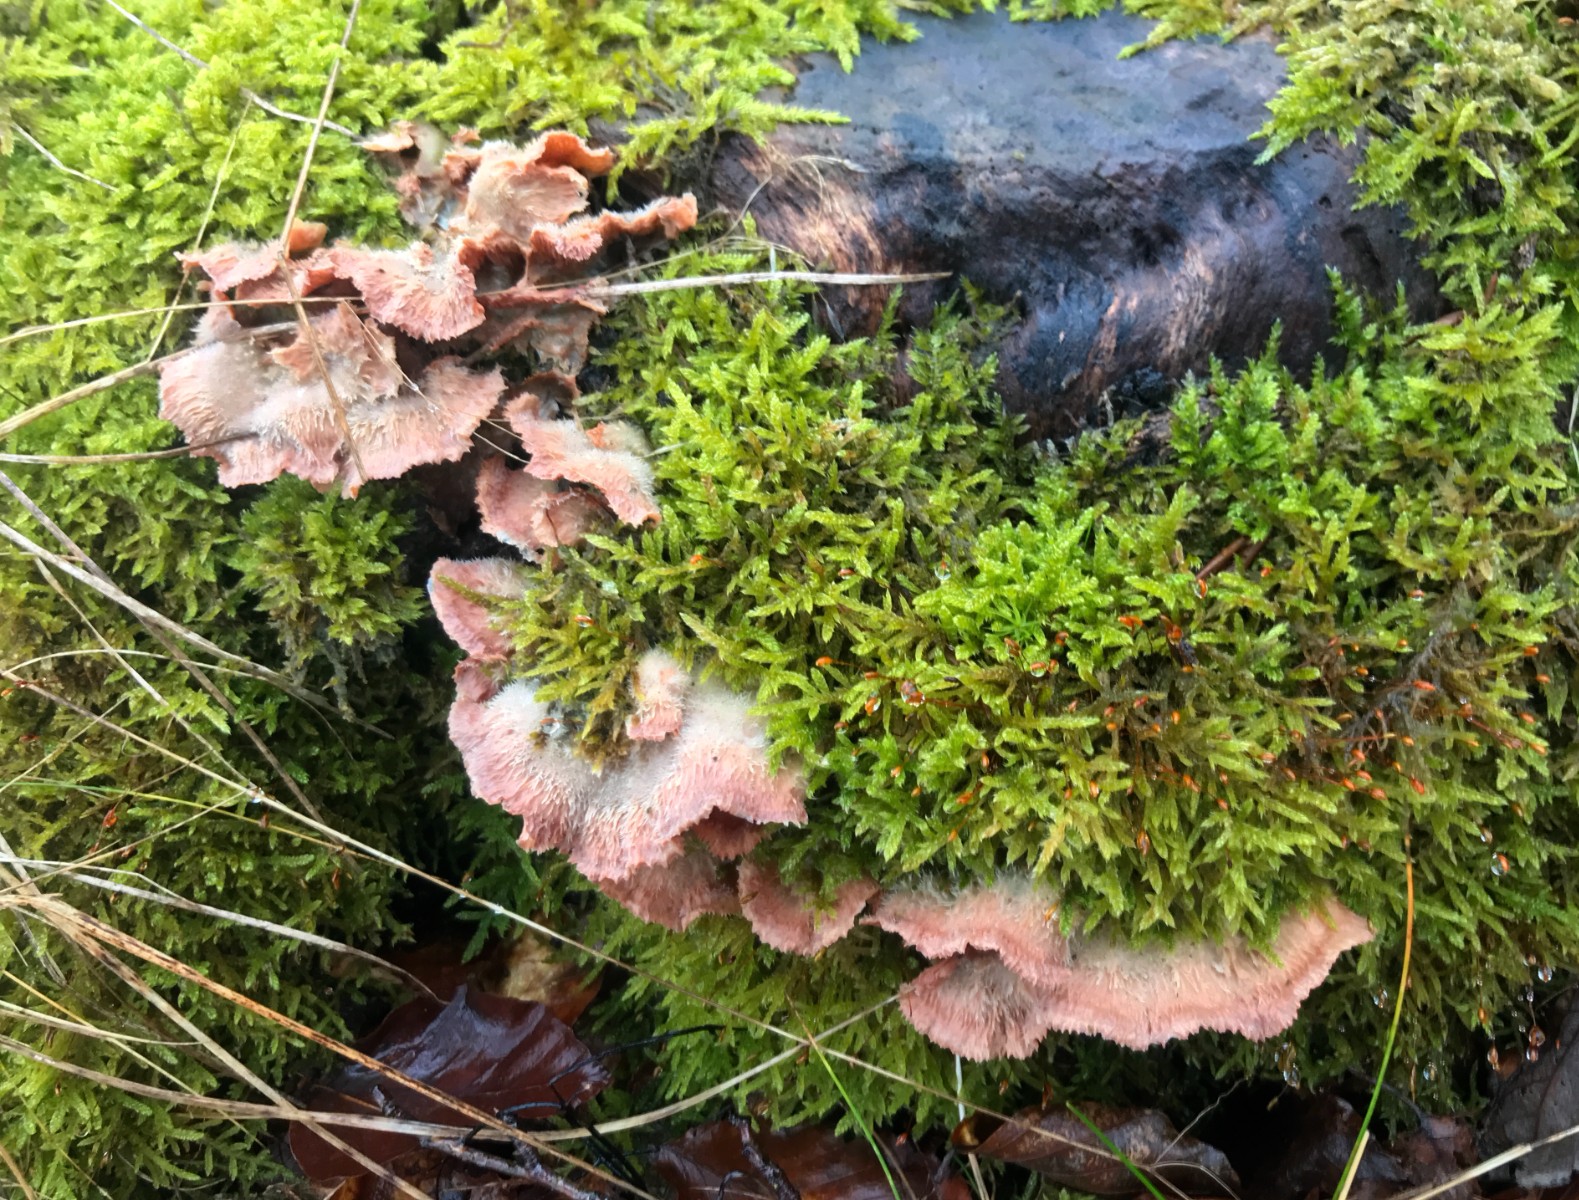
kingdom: Fungi
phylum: Basidiomycota
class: Agaricomycetes
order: Polyporales
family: Meruliaceae
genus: Phlebia
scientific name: Phlebia tremellosa
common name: bævrende åresvamp
